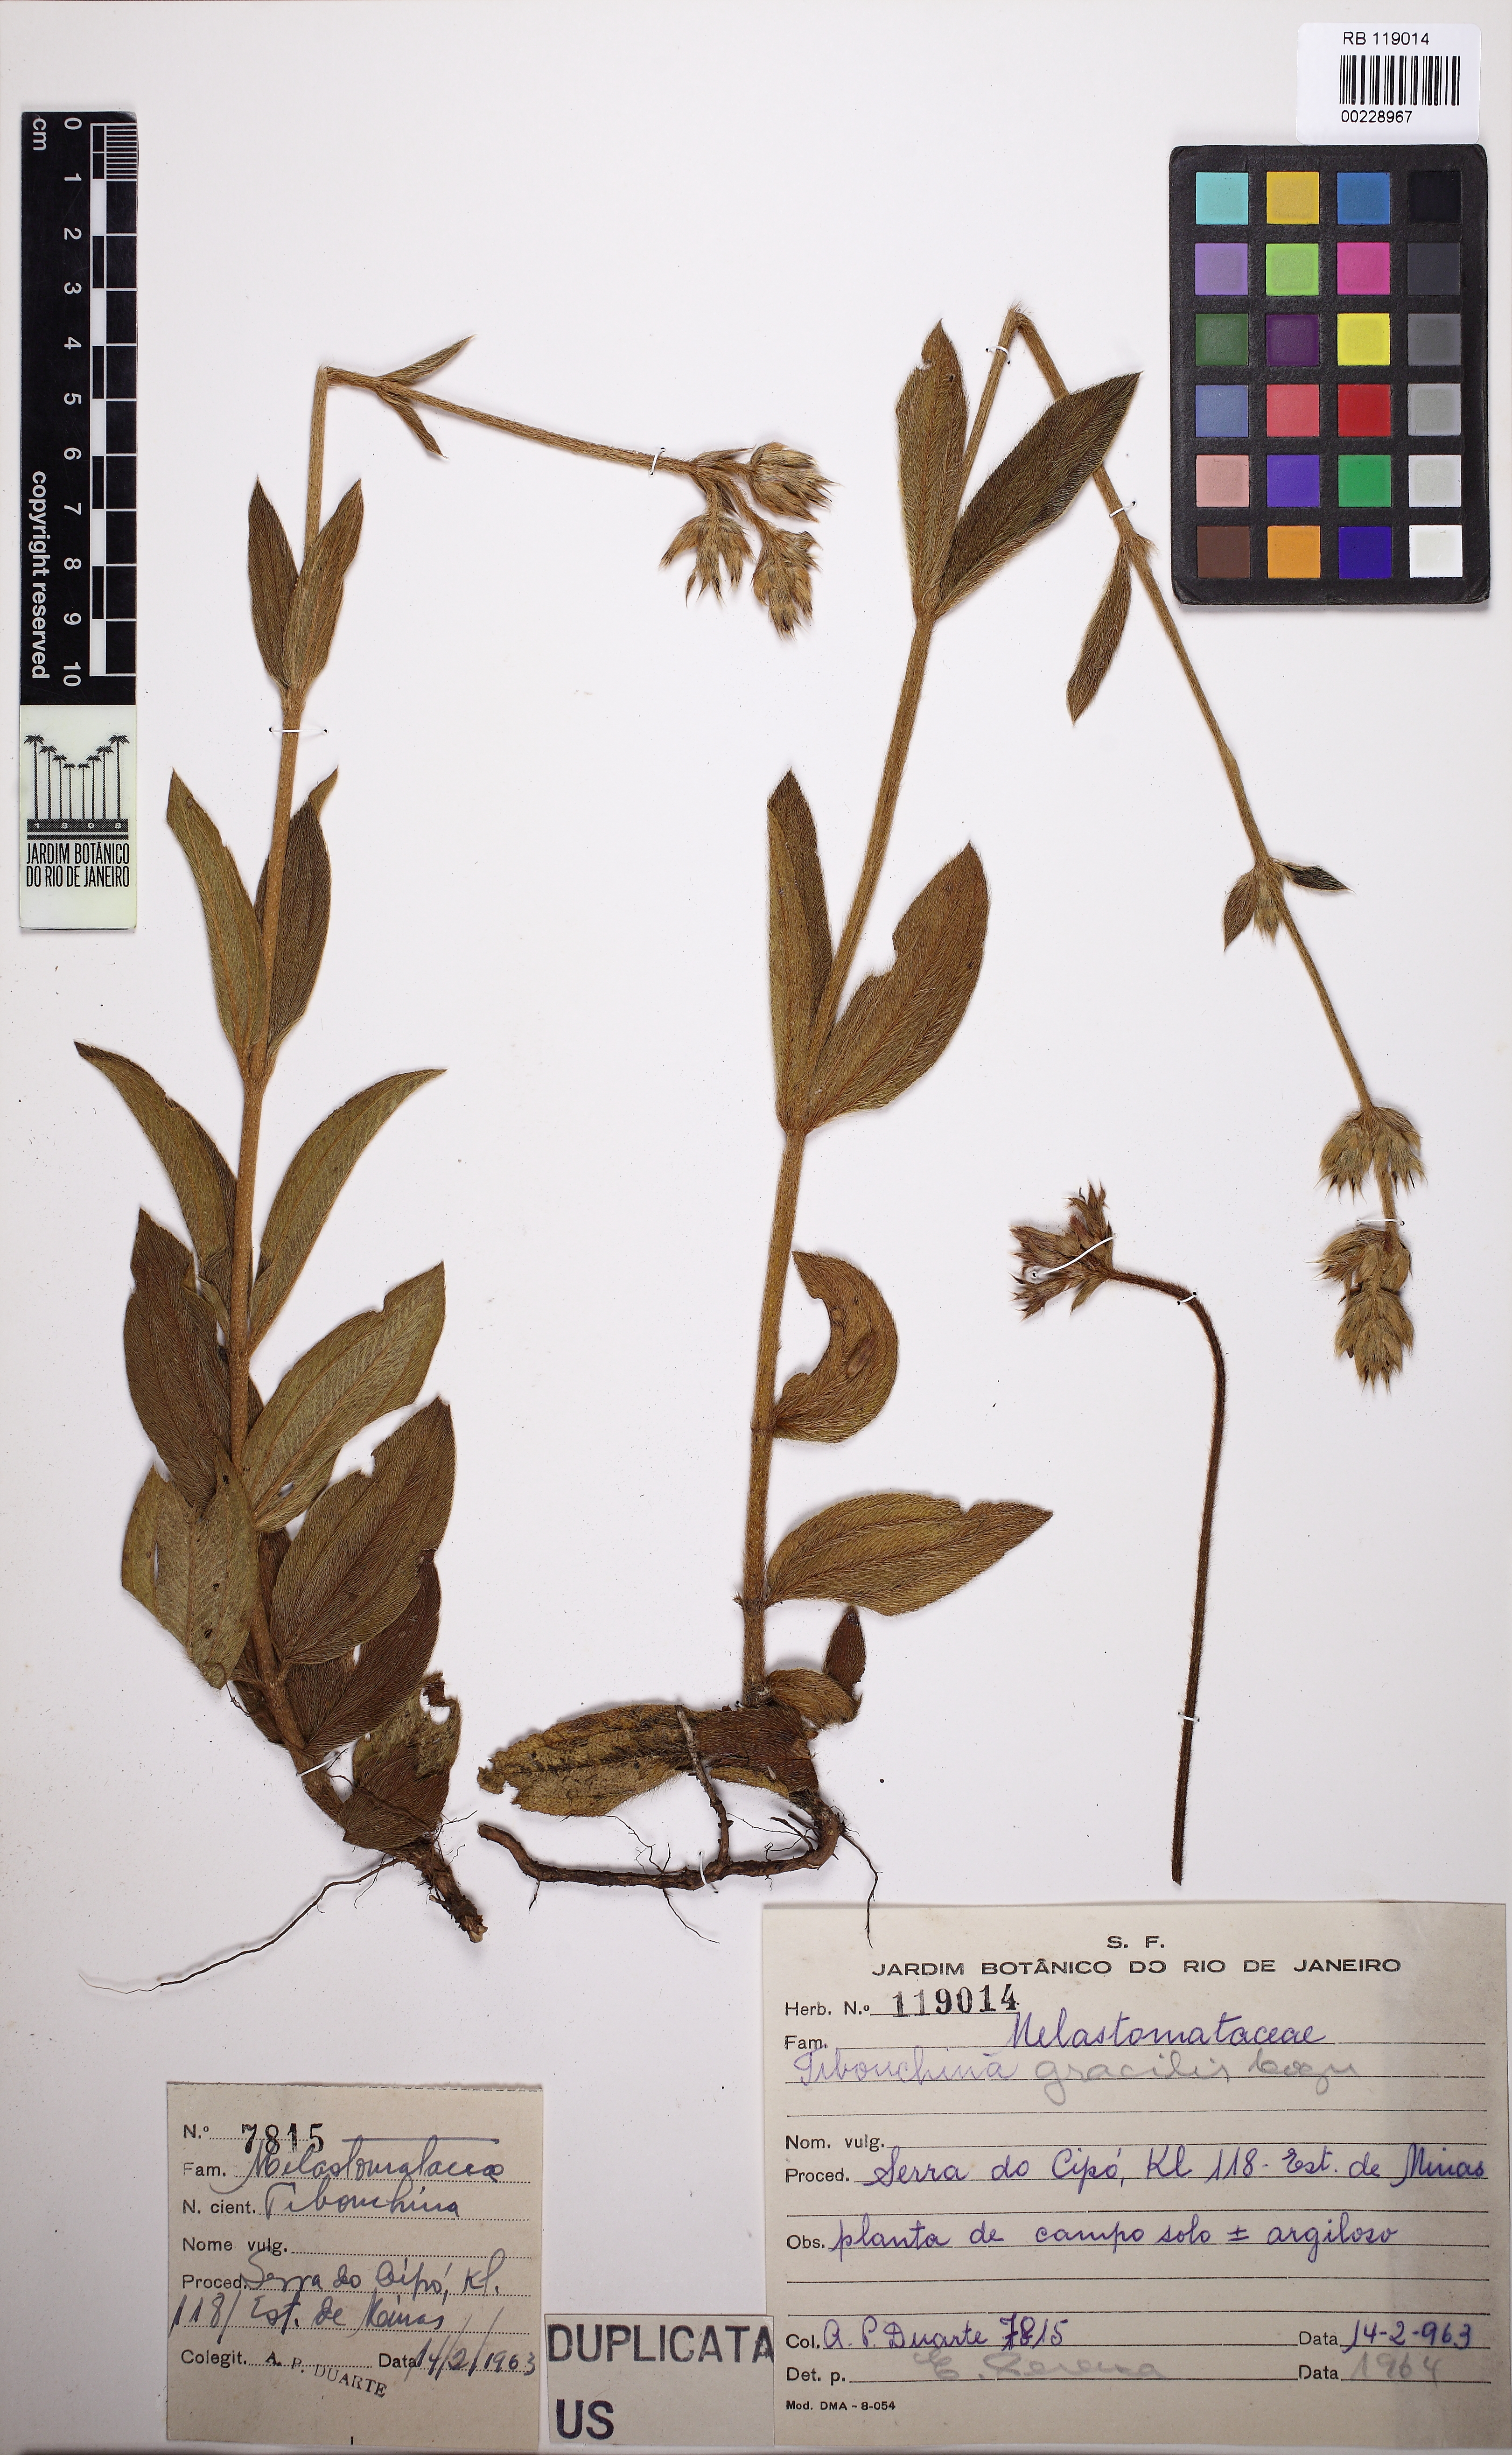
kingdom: Plantae
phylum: Tracheophyta
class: Magnoliopsida
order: Myrtales
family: Melastomataceae
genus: Chaetogastra
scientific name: Chaetogastra gracilis
